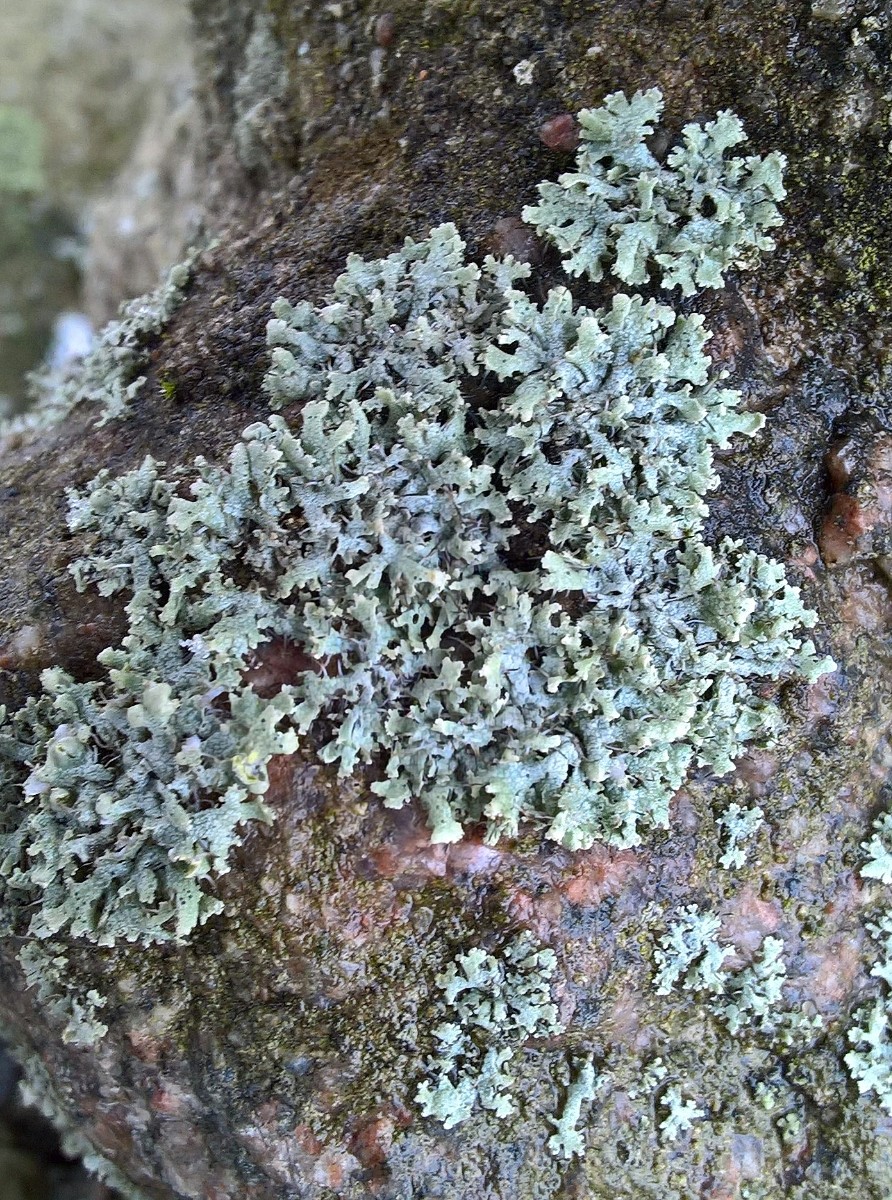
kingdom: Fungi
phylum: Ascomycota
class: Lecanoromycetes
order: Caliciales
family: Physciaceae
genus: Physcia
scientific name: Physcia adscendens
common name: hætte-rosetlav
